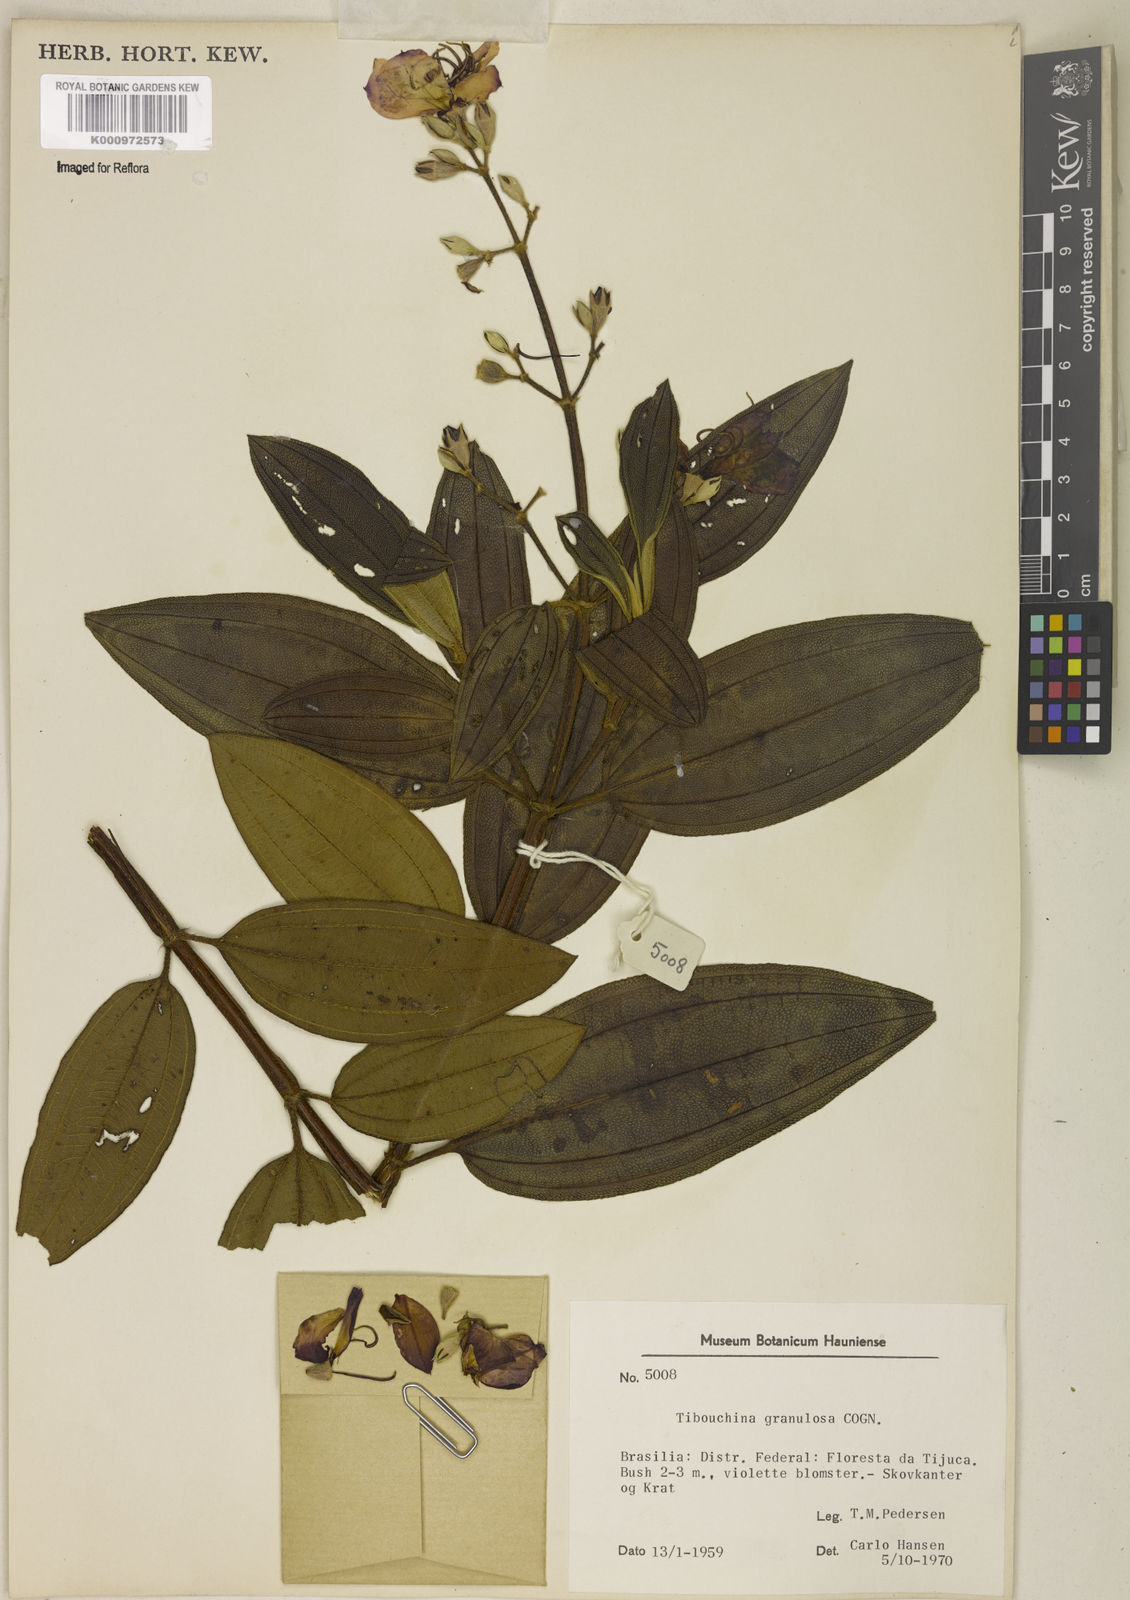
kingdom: Plantae
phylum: Tracheophyta
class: Magnoliopsida
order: Myrtales
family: Melastomataceae
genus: Pleroma
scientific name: Pleroma granulosum
